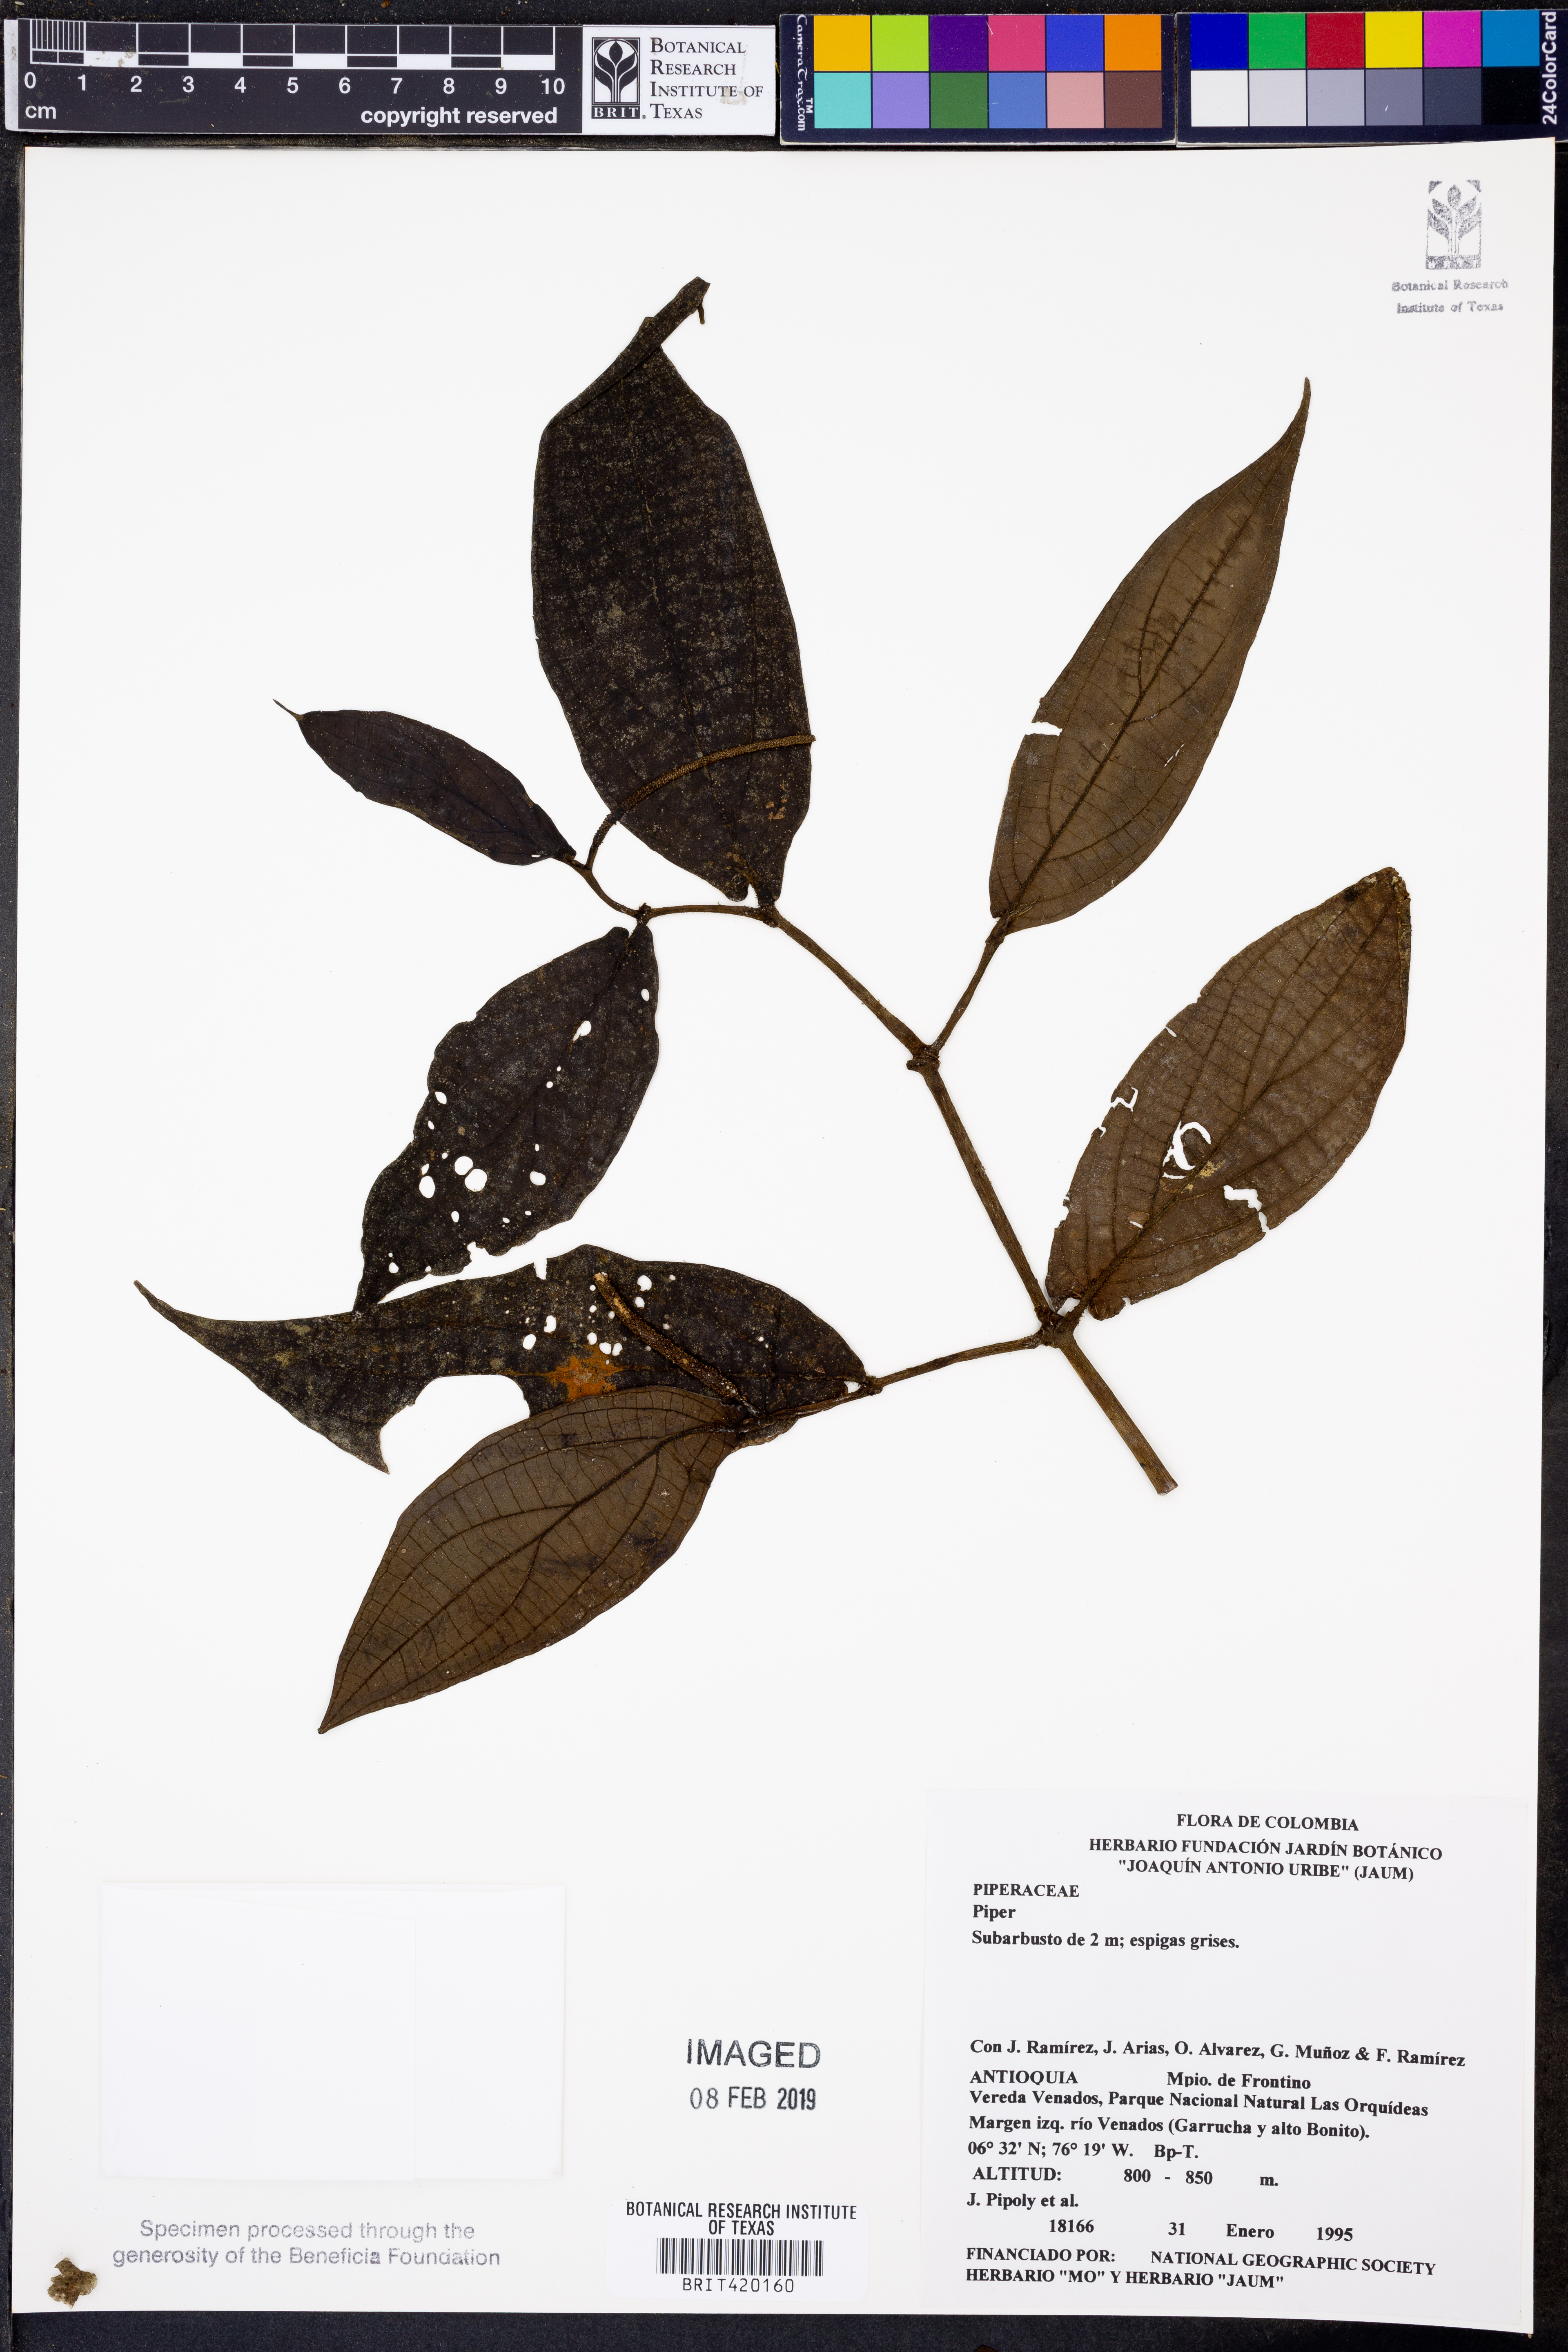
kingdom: Plantae
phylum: Tracheophyta
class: Magnoliopsida
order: Piperales
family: Piperaceae
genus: Piper
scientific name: Piper
